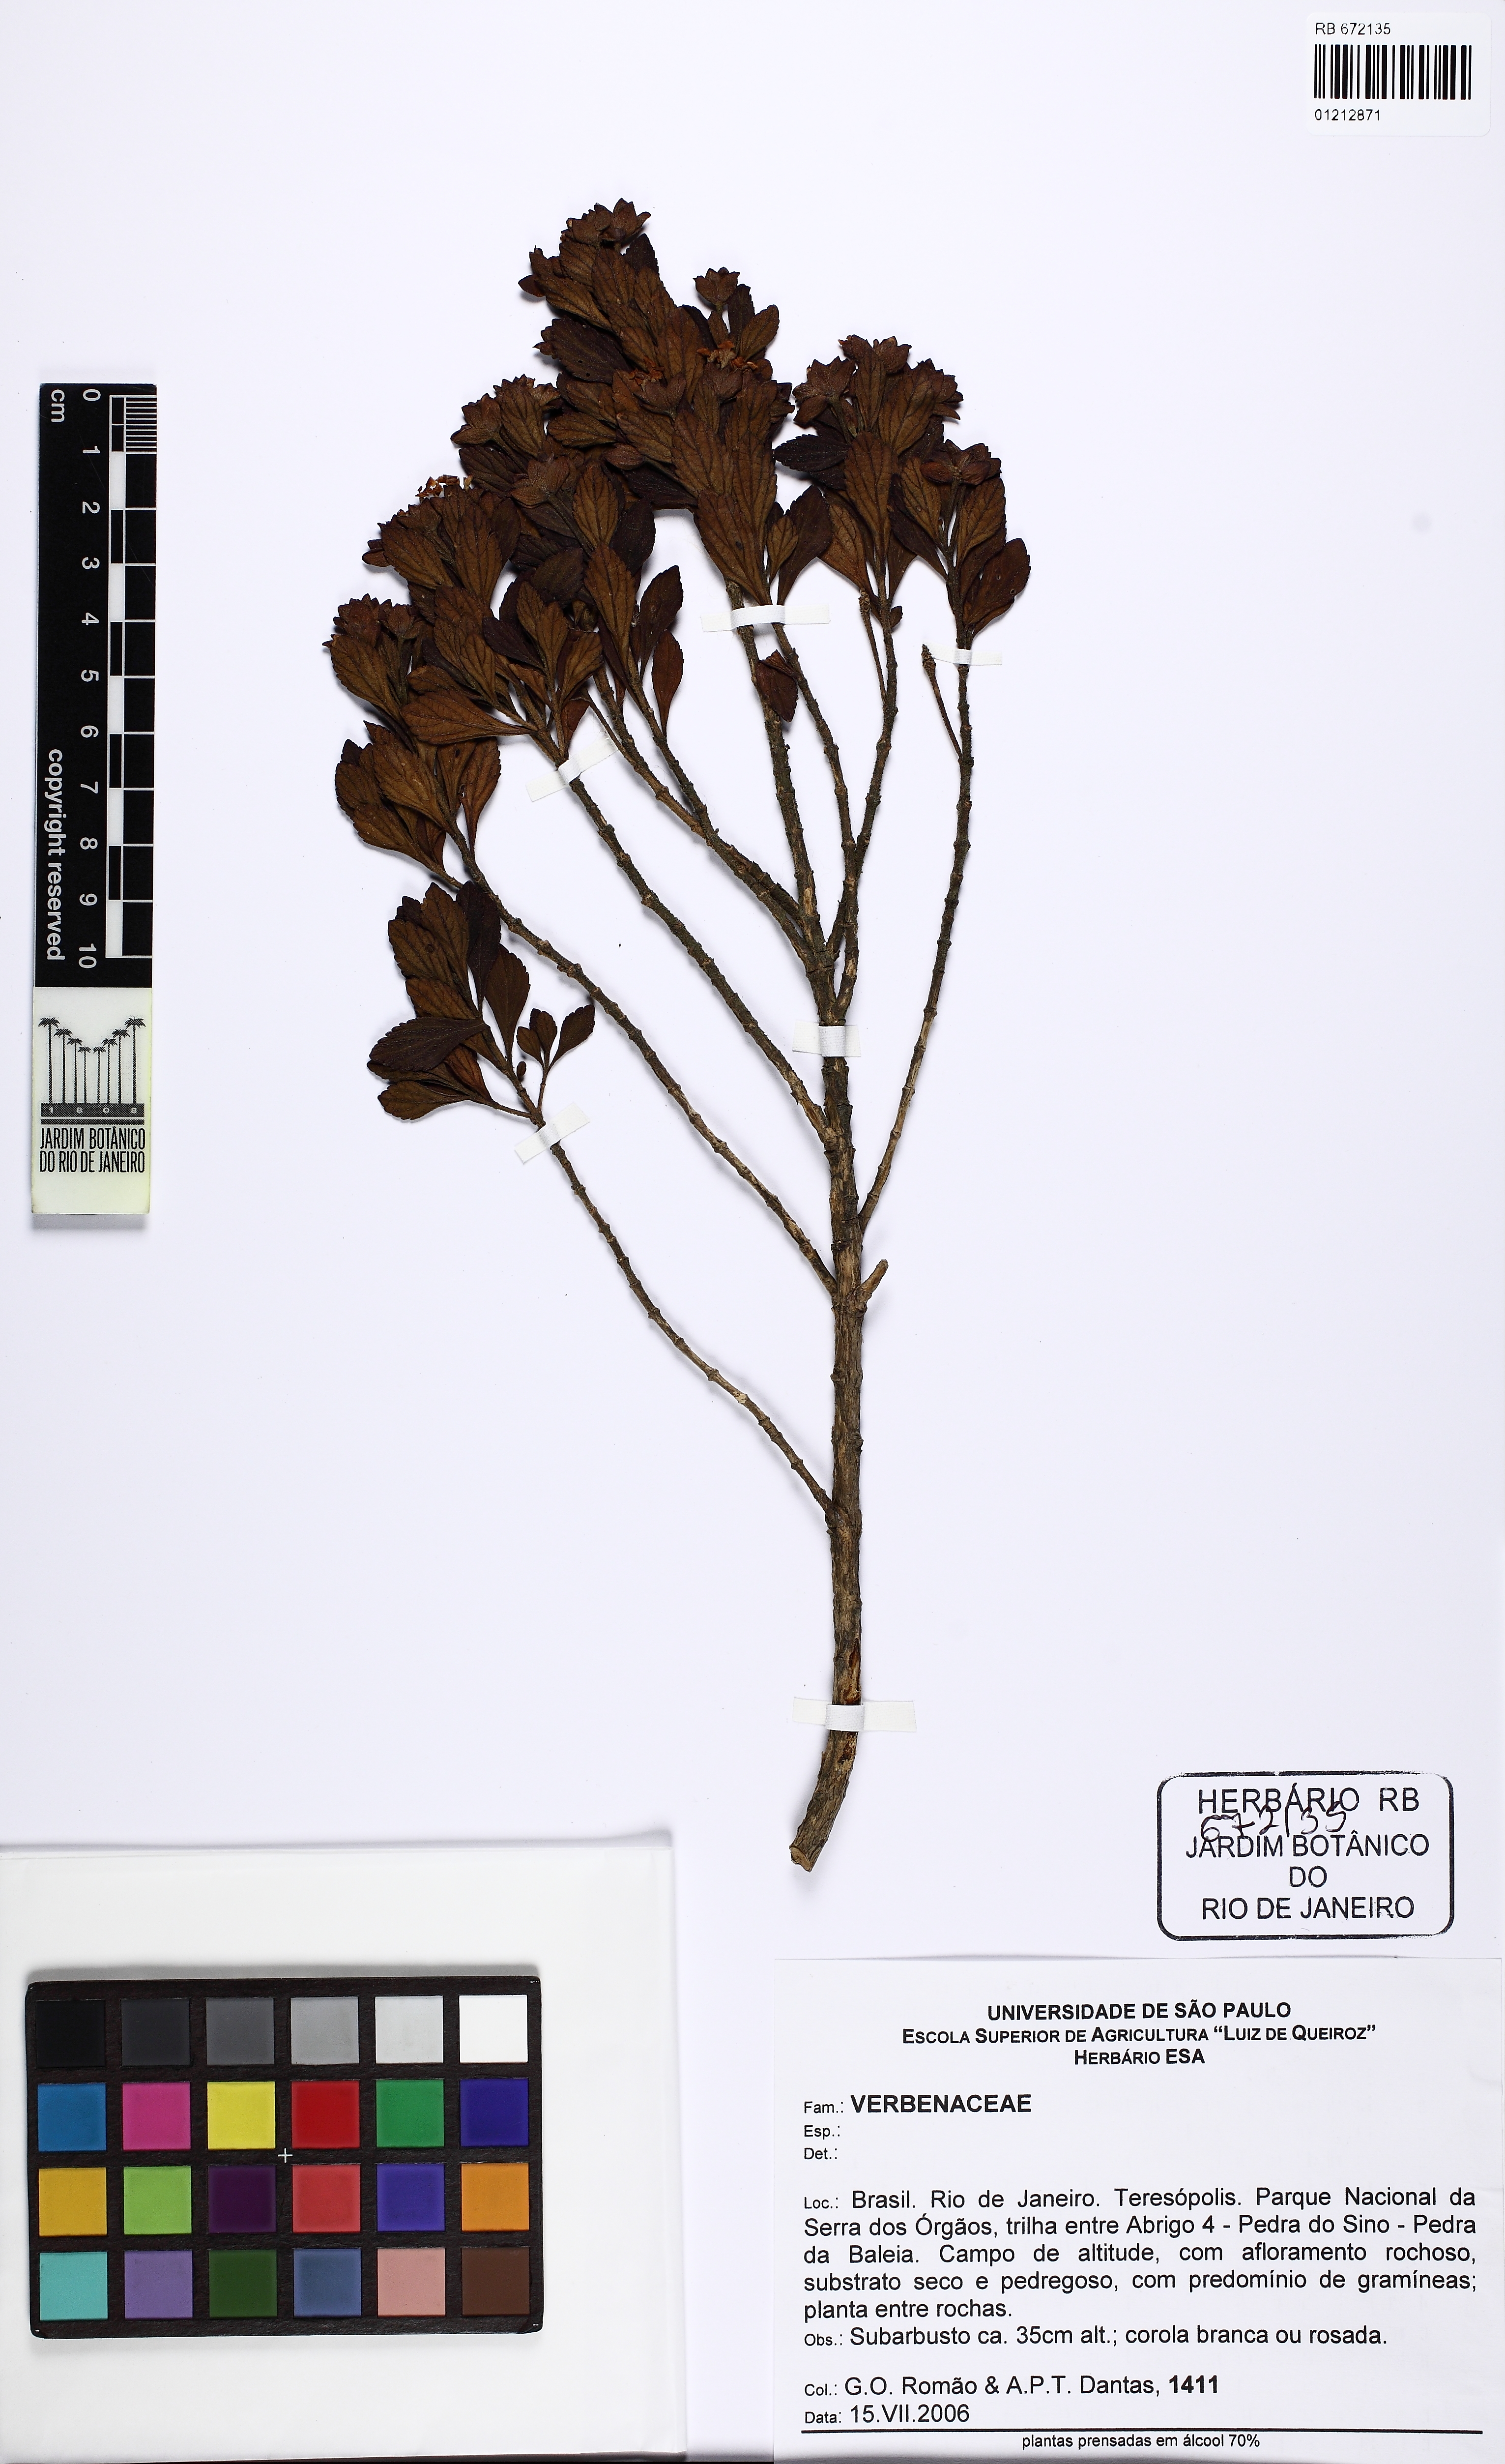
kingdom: Plantae
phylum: Tracheophyta
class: Magnoliopsida
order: Lamiales
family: Verbenaceae
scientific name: Verbenaceae
